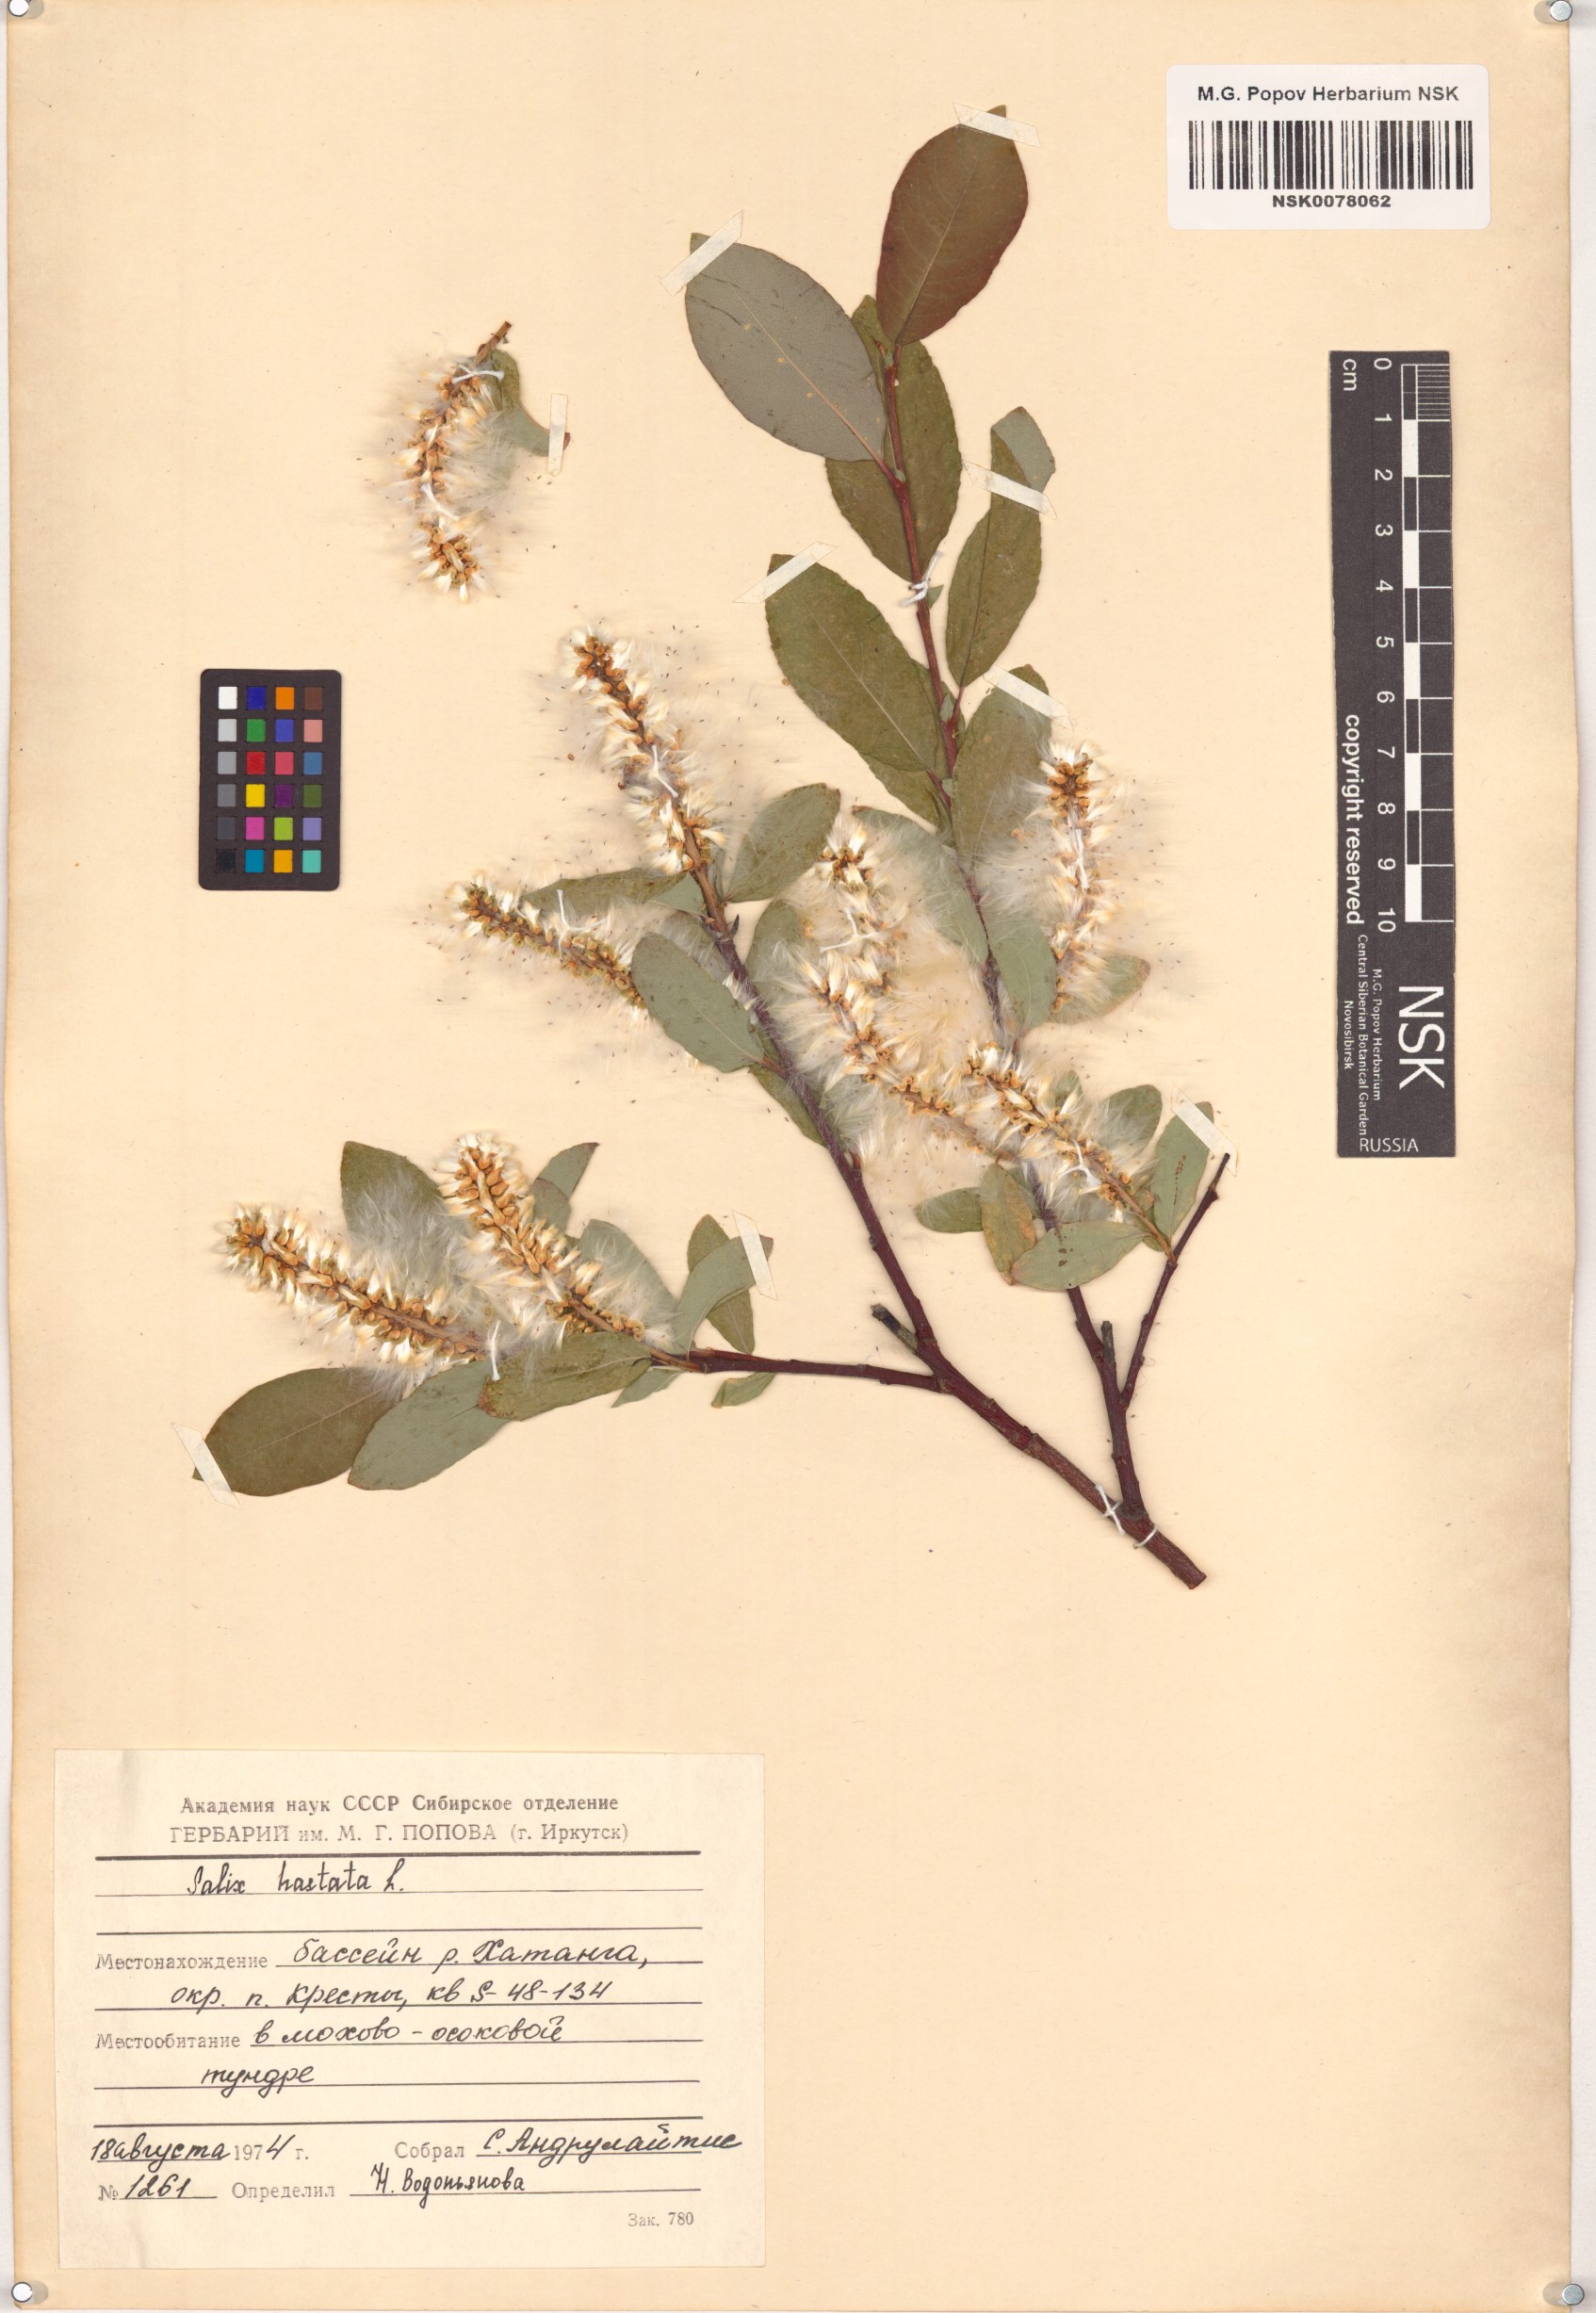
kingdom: Plantae
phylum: Tracheophyta
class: Magnoliopsida
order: Malpighiales
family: Salicaceae
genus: Salix
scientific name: Salix hastata
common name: Halberd willow
